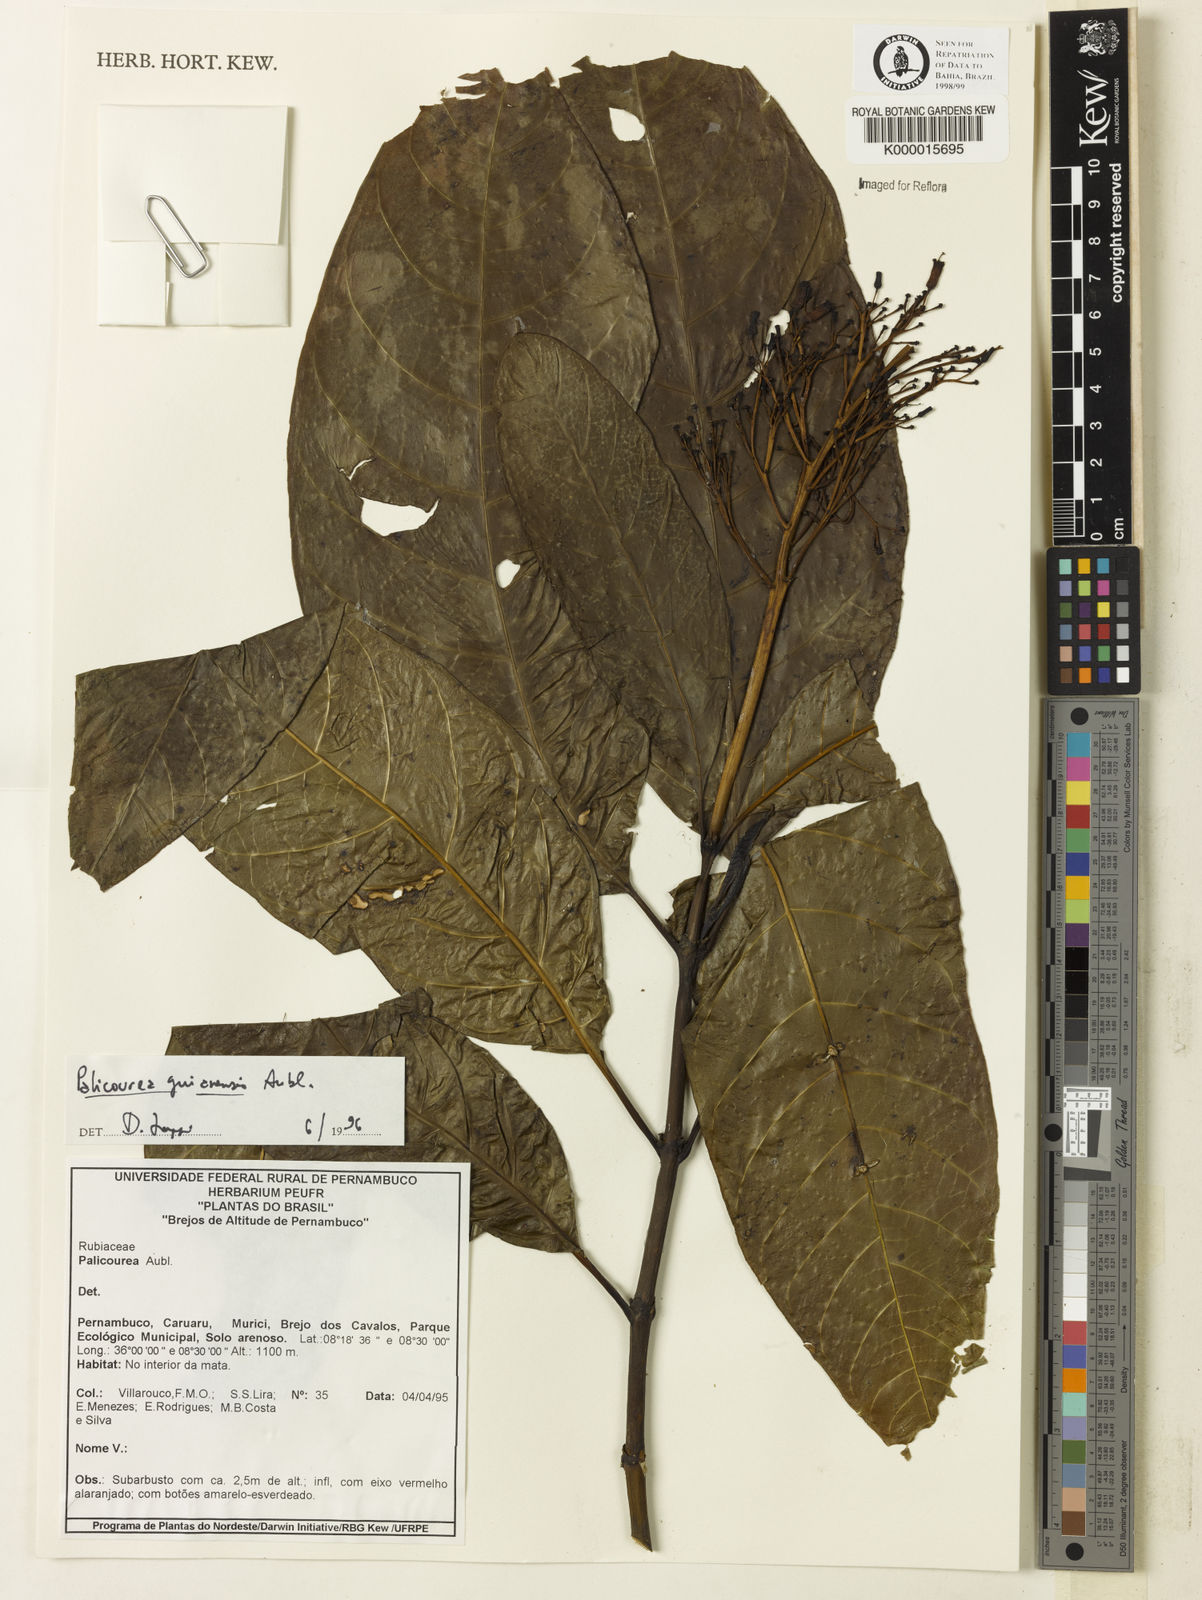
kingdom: Plantae
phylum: Tracheophyta
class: Magnoliopsida
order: Gentianales
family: Rubiaceae
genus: Palicourea
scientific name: Palicourea guianensis
